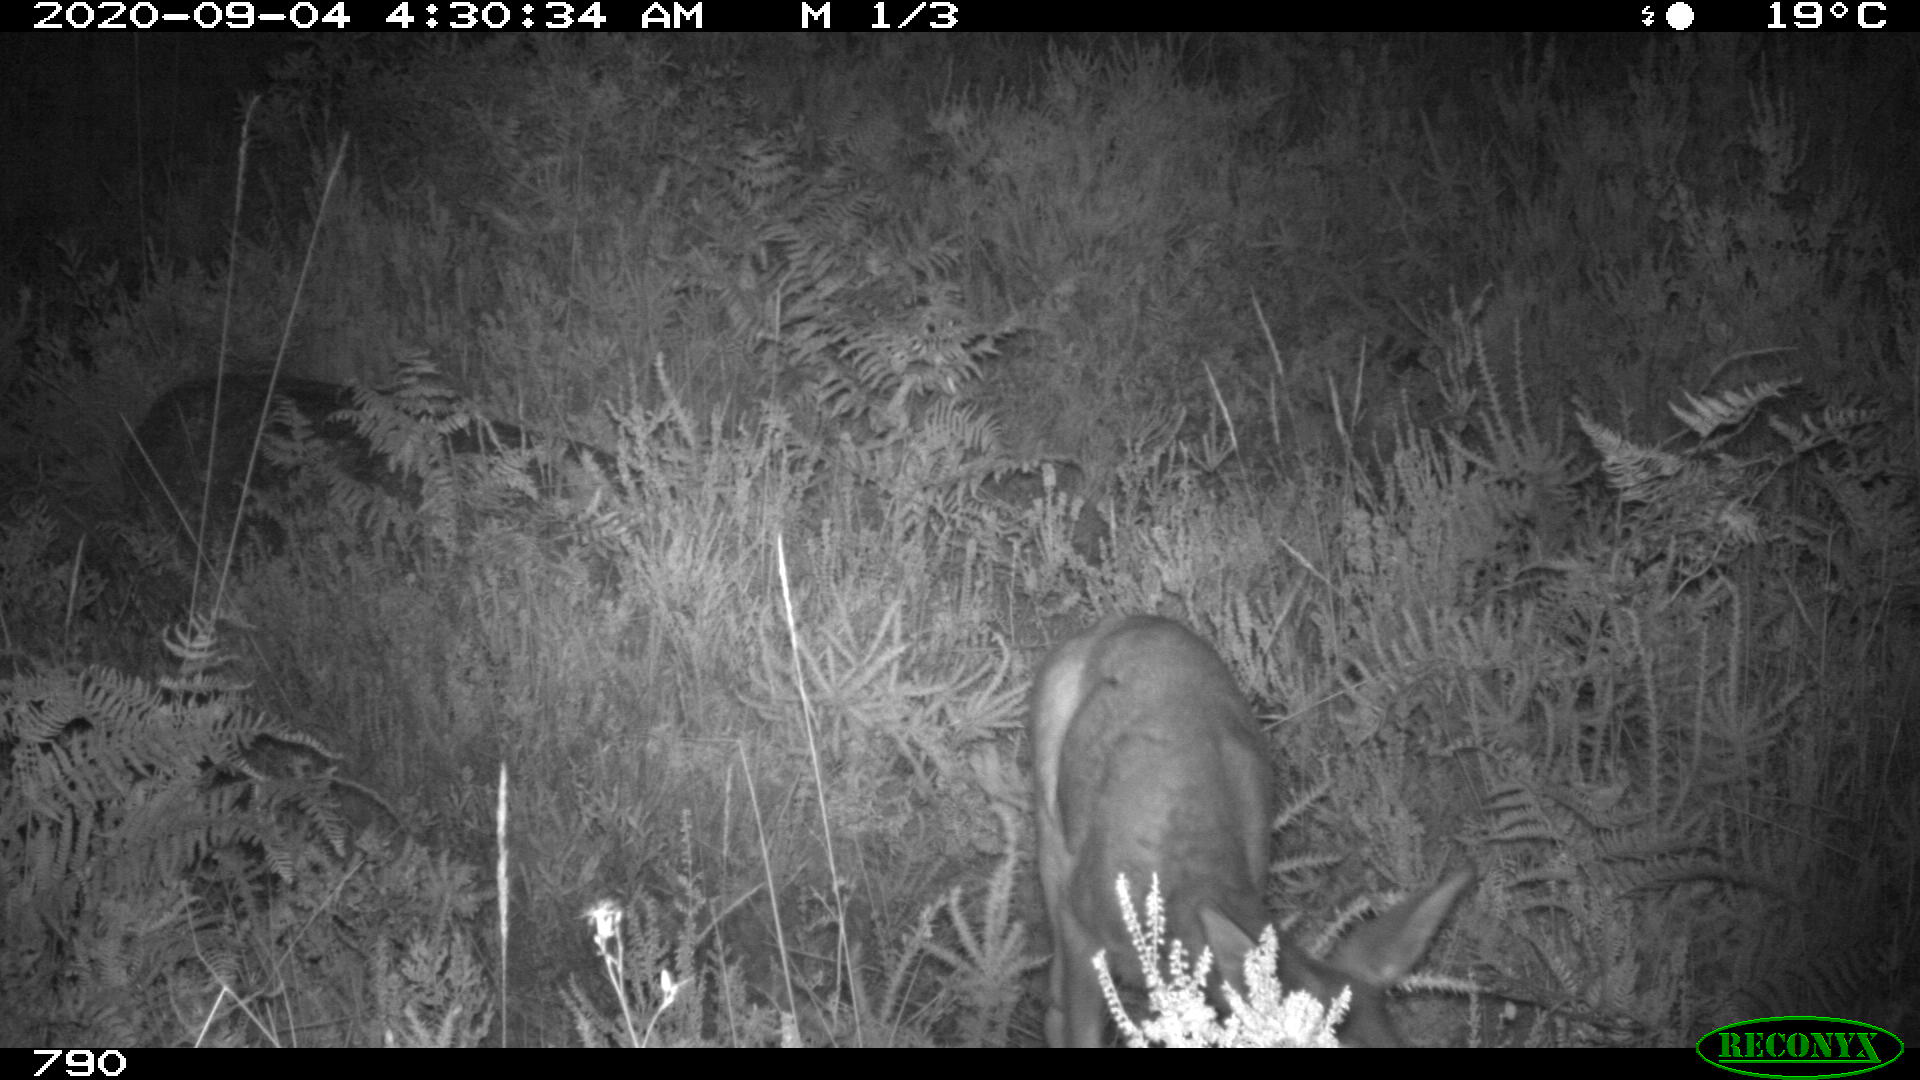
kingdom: Animalia
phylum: Chordata
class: Mammalia
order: Artiodactyla
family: Cervidae
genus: Capreolus
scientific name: Capreolus capreolus
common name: Western roe deer
